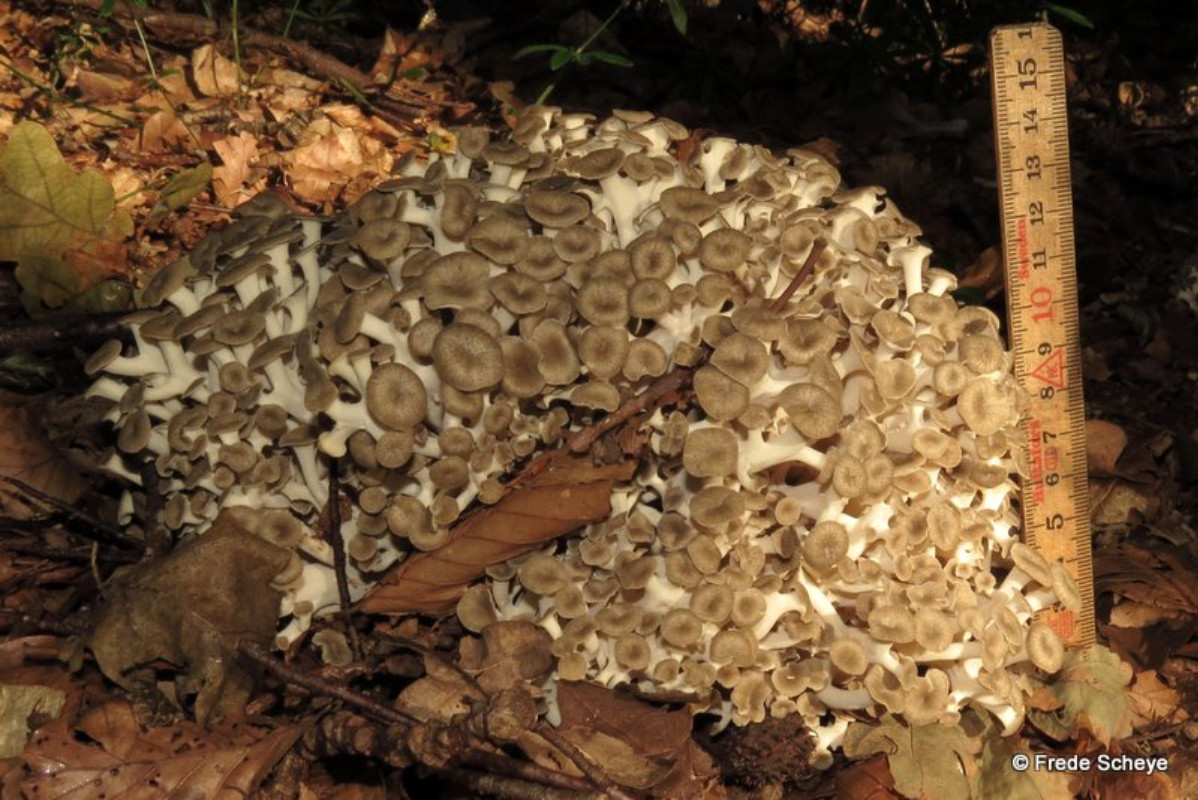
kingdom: Fungi
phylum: Basidiomycota
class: Agaricomycetes
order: Polyporales
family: Polyporaceae
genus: Polyporus
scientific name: Polyporus umbellatus
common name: skærmformet stilkporesvamp
